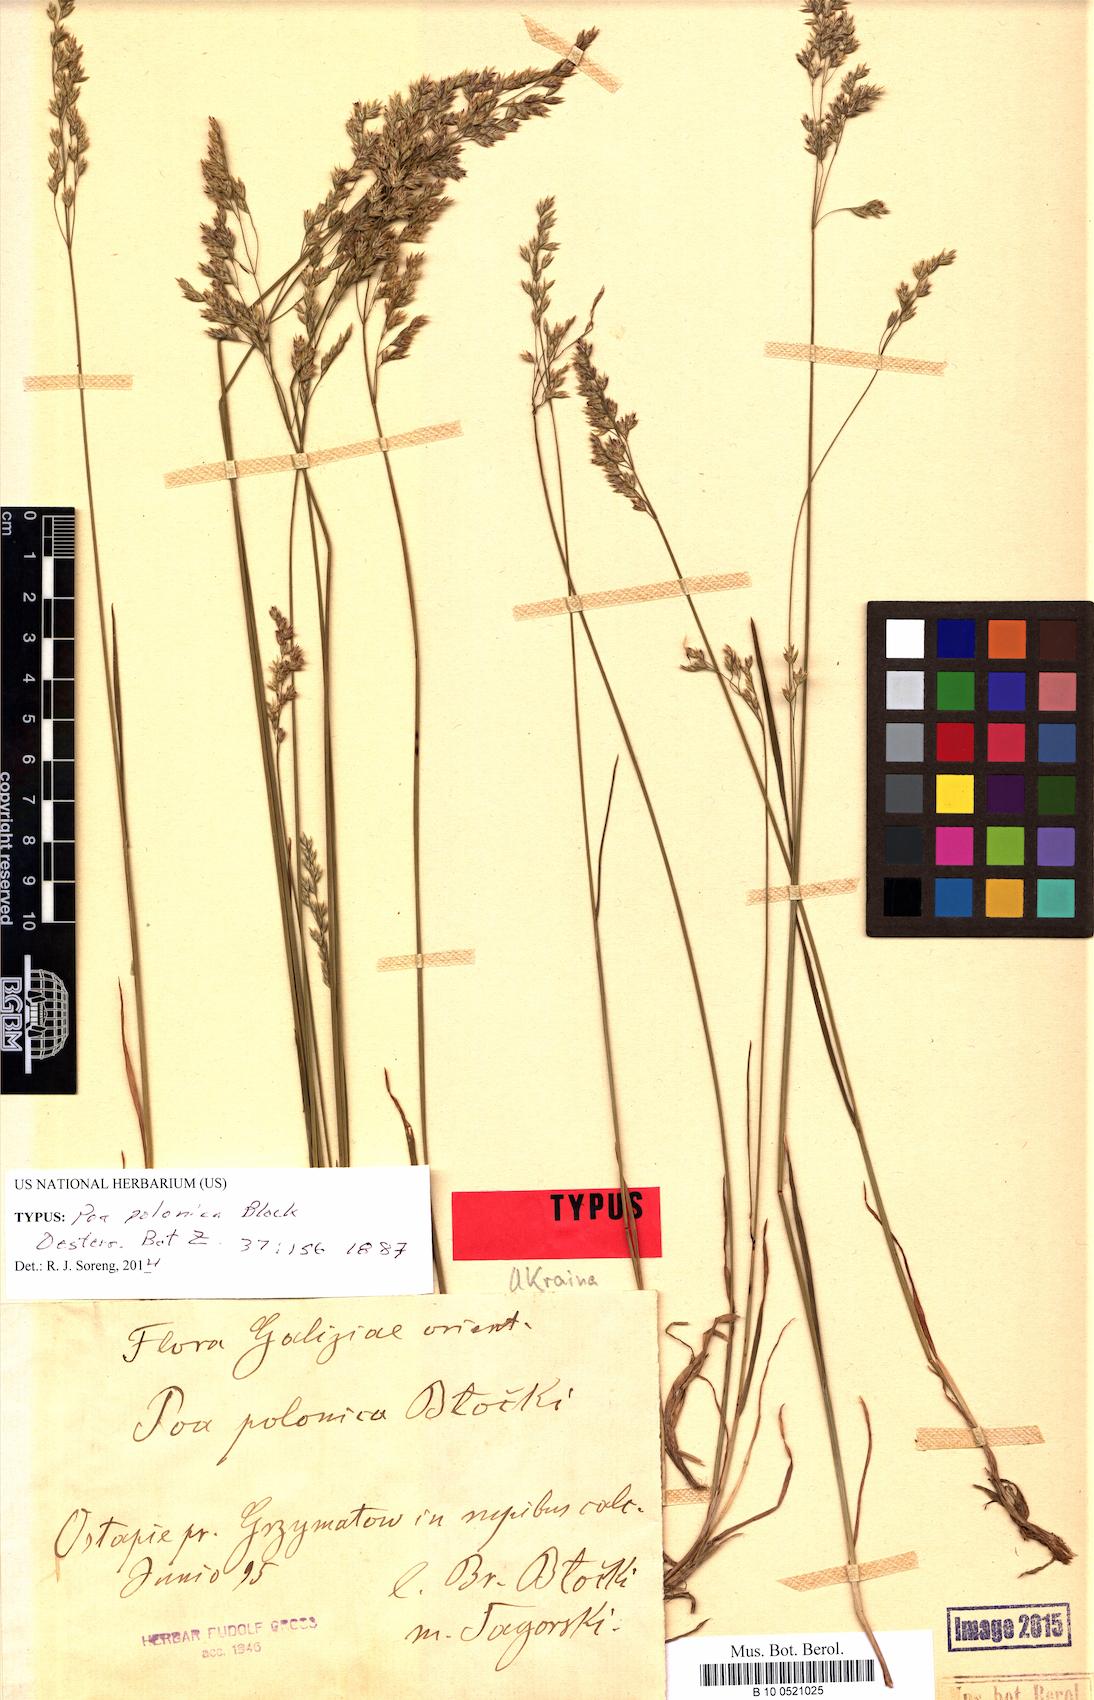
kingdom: Plantae
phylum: Tracheophyta
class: Liliopsida
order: Poales
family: Poaceae
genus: Poa
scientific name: Poa versicolor
